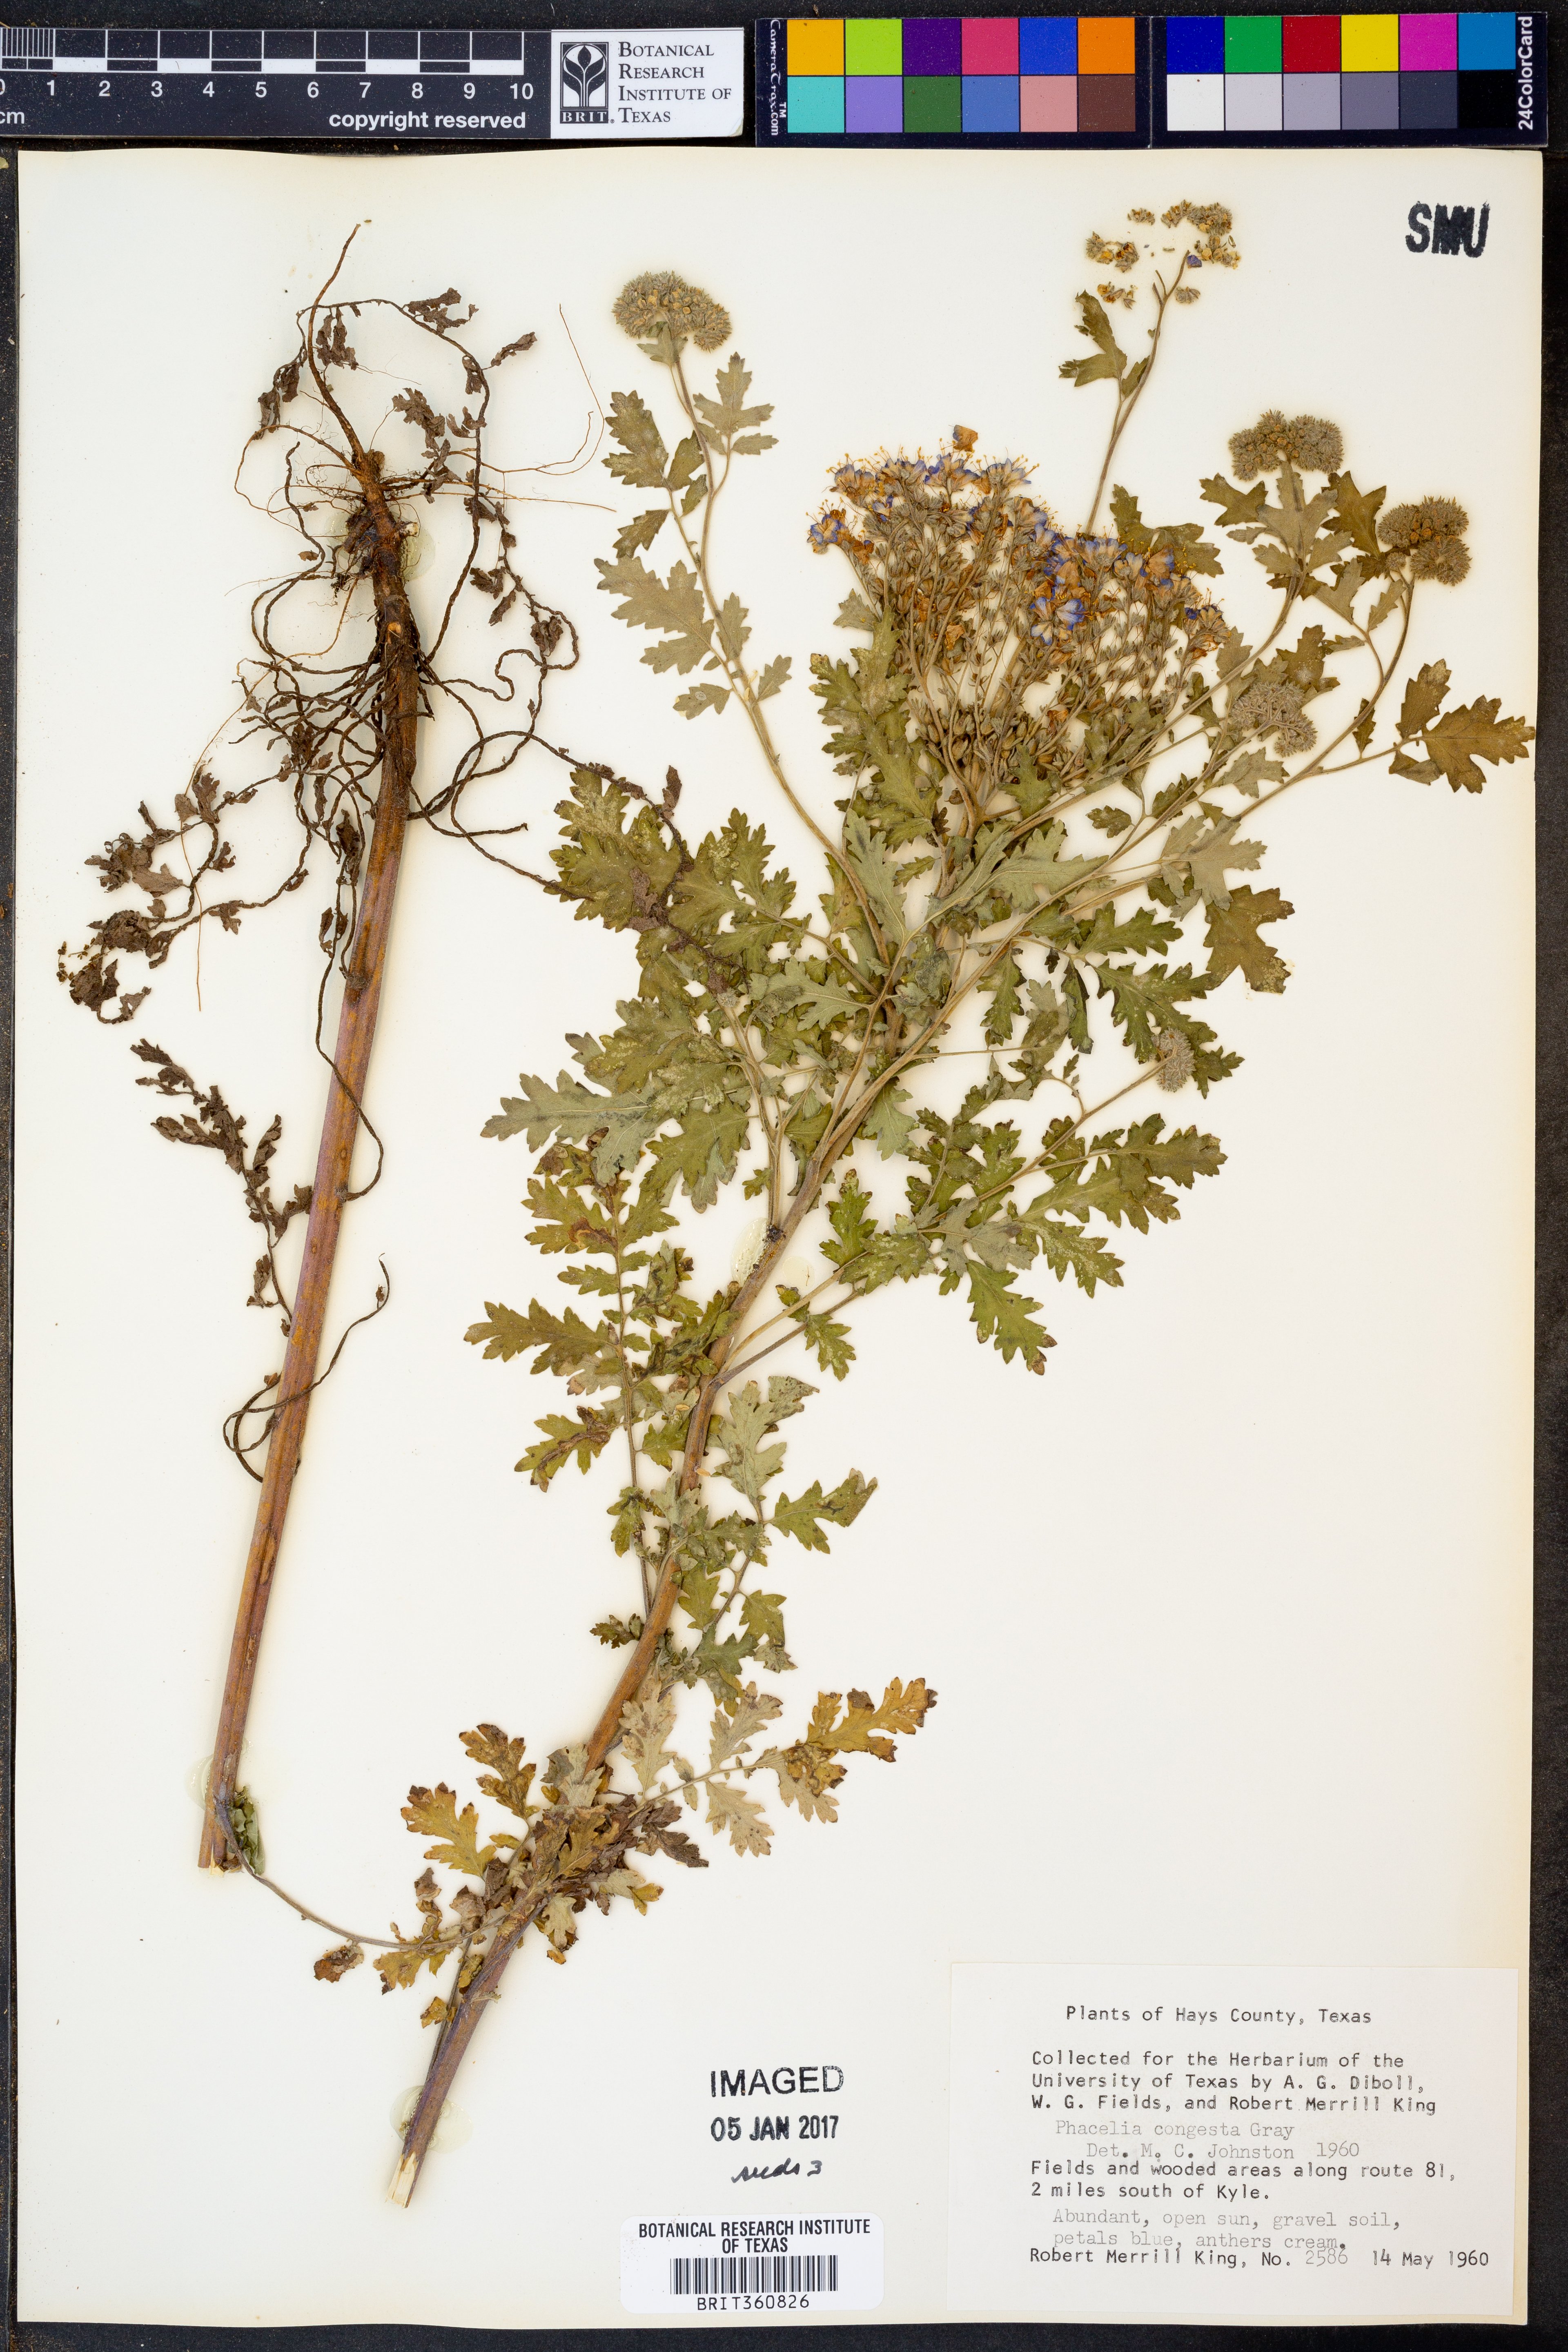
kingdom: Plantae
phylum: Tracheophyta
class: Magnoliopsida
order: Boraginales
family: Hydrophyllaceae
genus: Phacelia
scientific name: Phacelia congesta
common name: Blue curls
